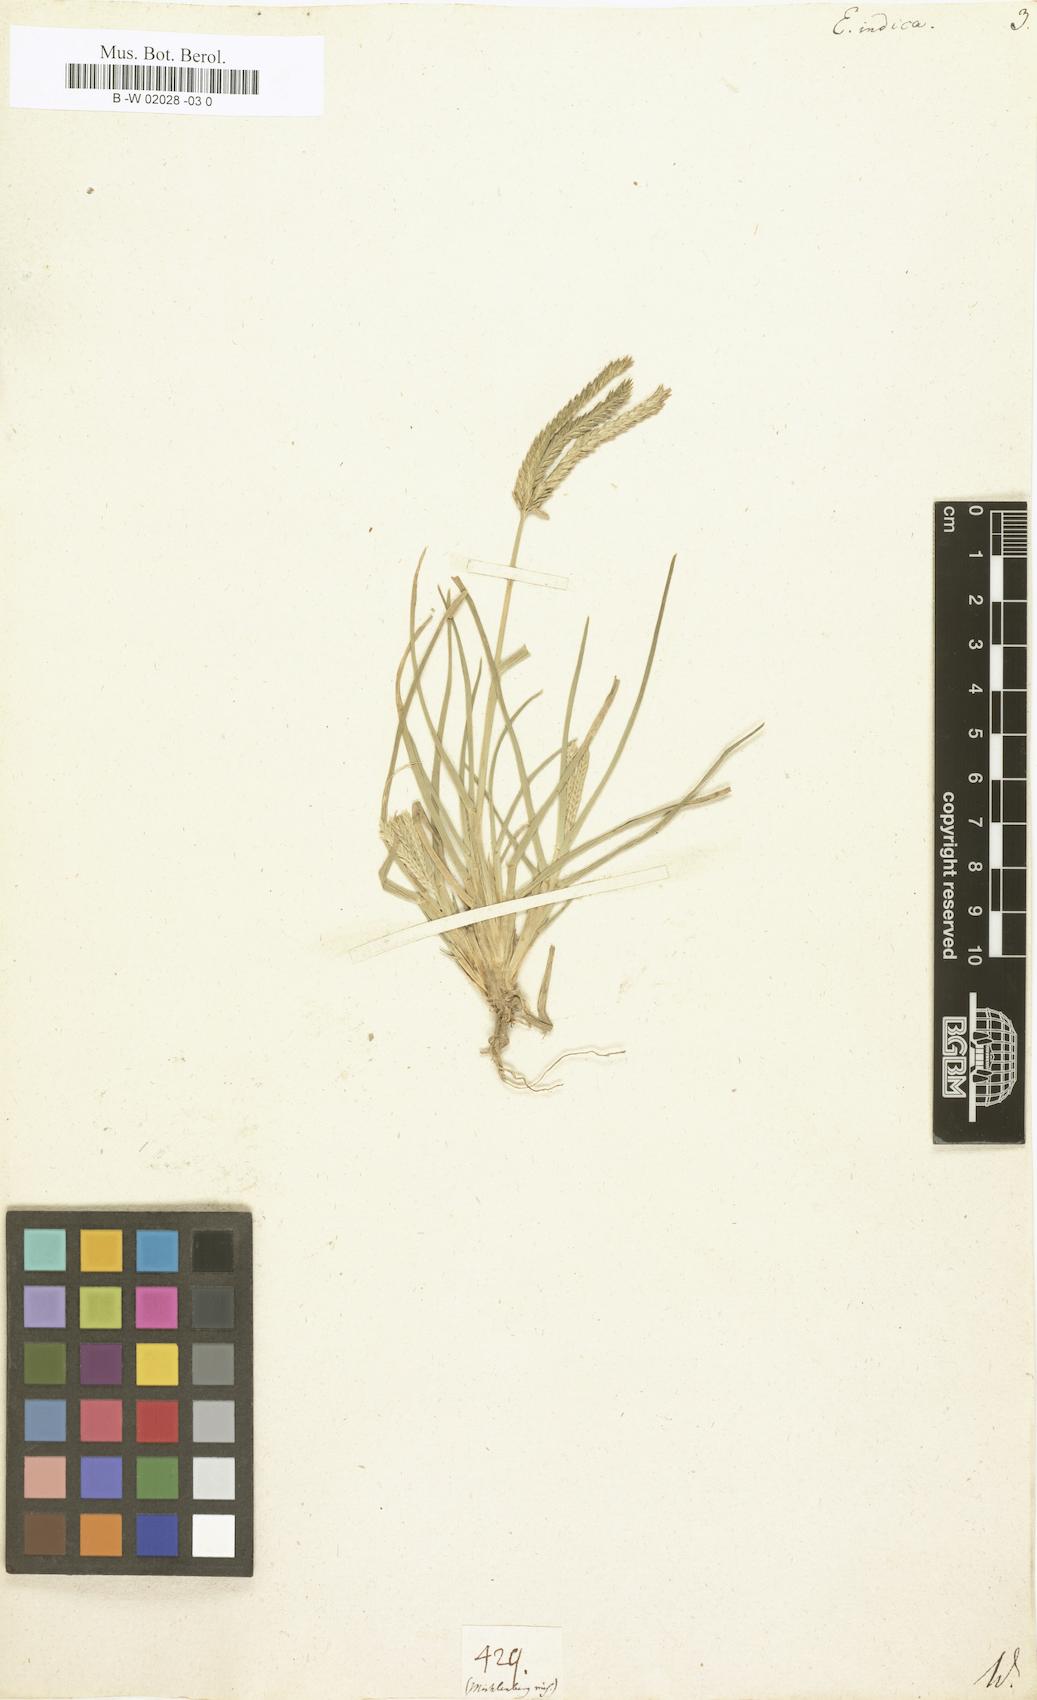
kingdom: Plantae
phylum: Tracheophyta
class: Liliopsida
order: Poales
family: Poaceae
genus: Eleusine
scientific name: Eleusine indica
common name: Yard-grass
